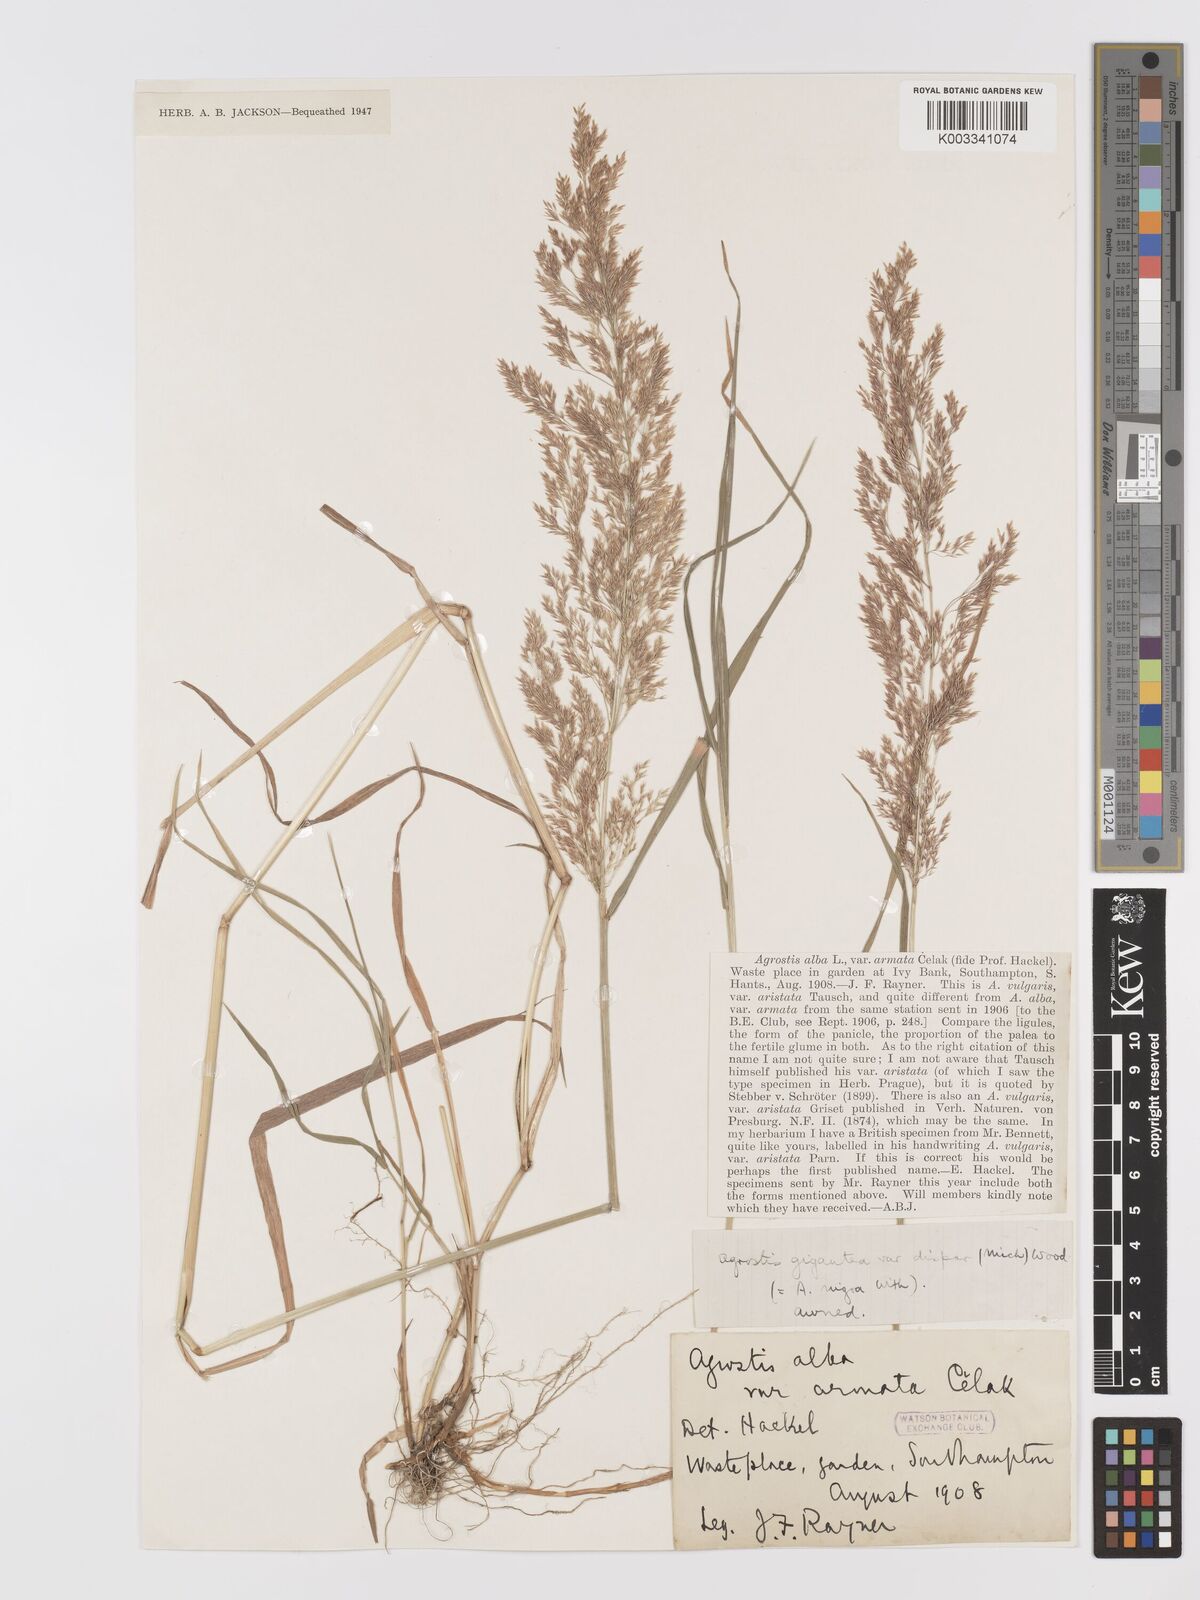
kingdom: Plantae
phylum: Tracheophyta
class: Liliopsida
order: Poales
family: Poaceae
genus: Agrostis
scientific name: Agrostis gigantea
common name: Black bent
